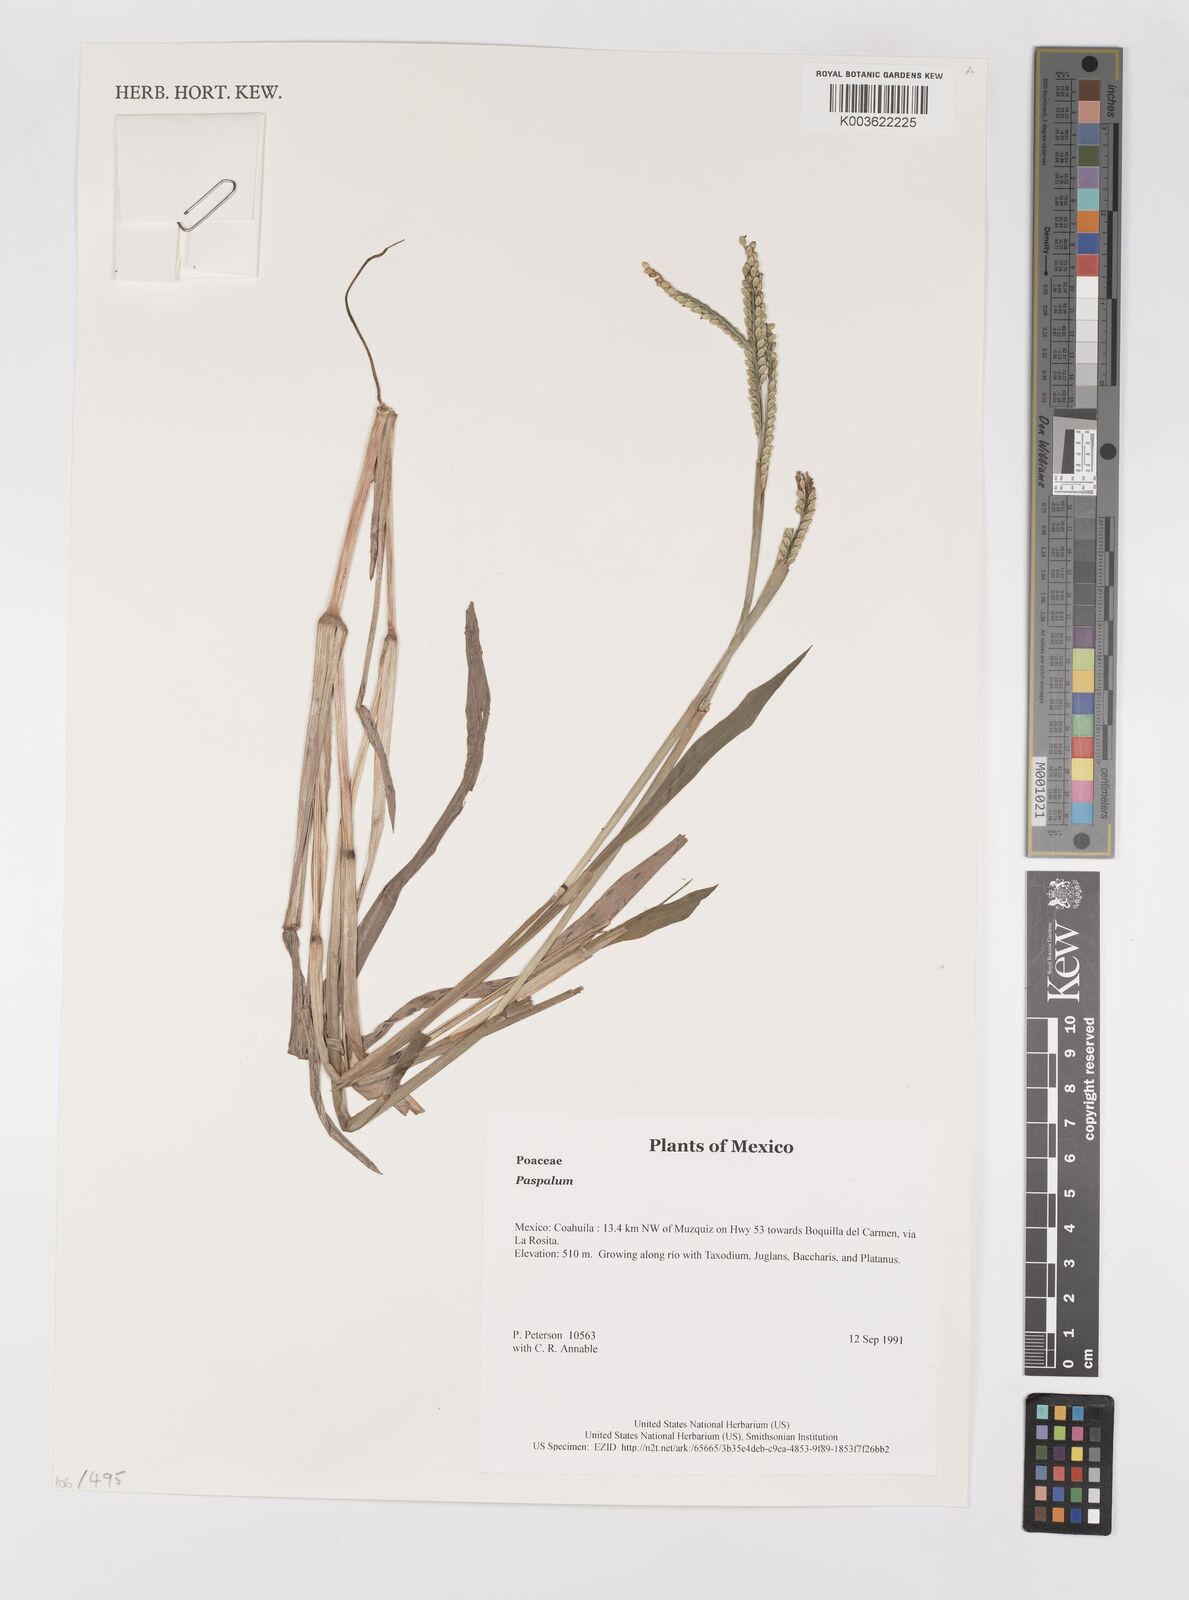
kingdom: Plantae
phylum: Tracheophyta
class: Liliopsida
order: Poales
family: Poaceae
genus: Paspalum
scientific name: Paspalum
